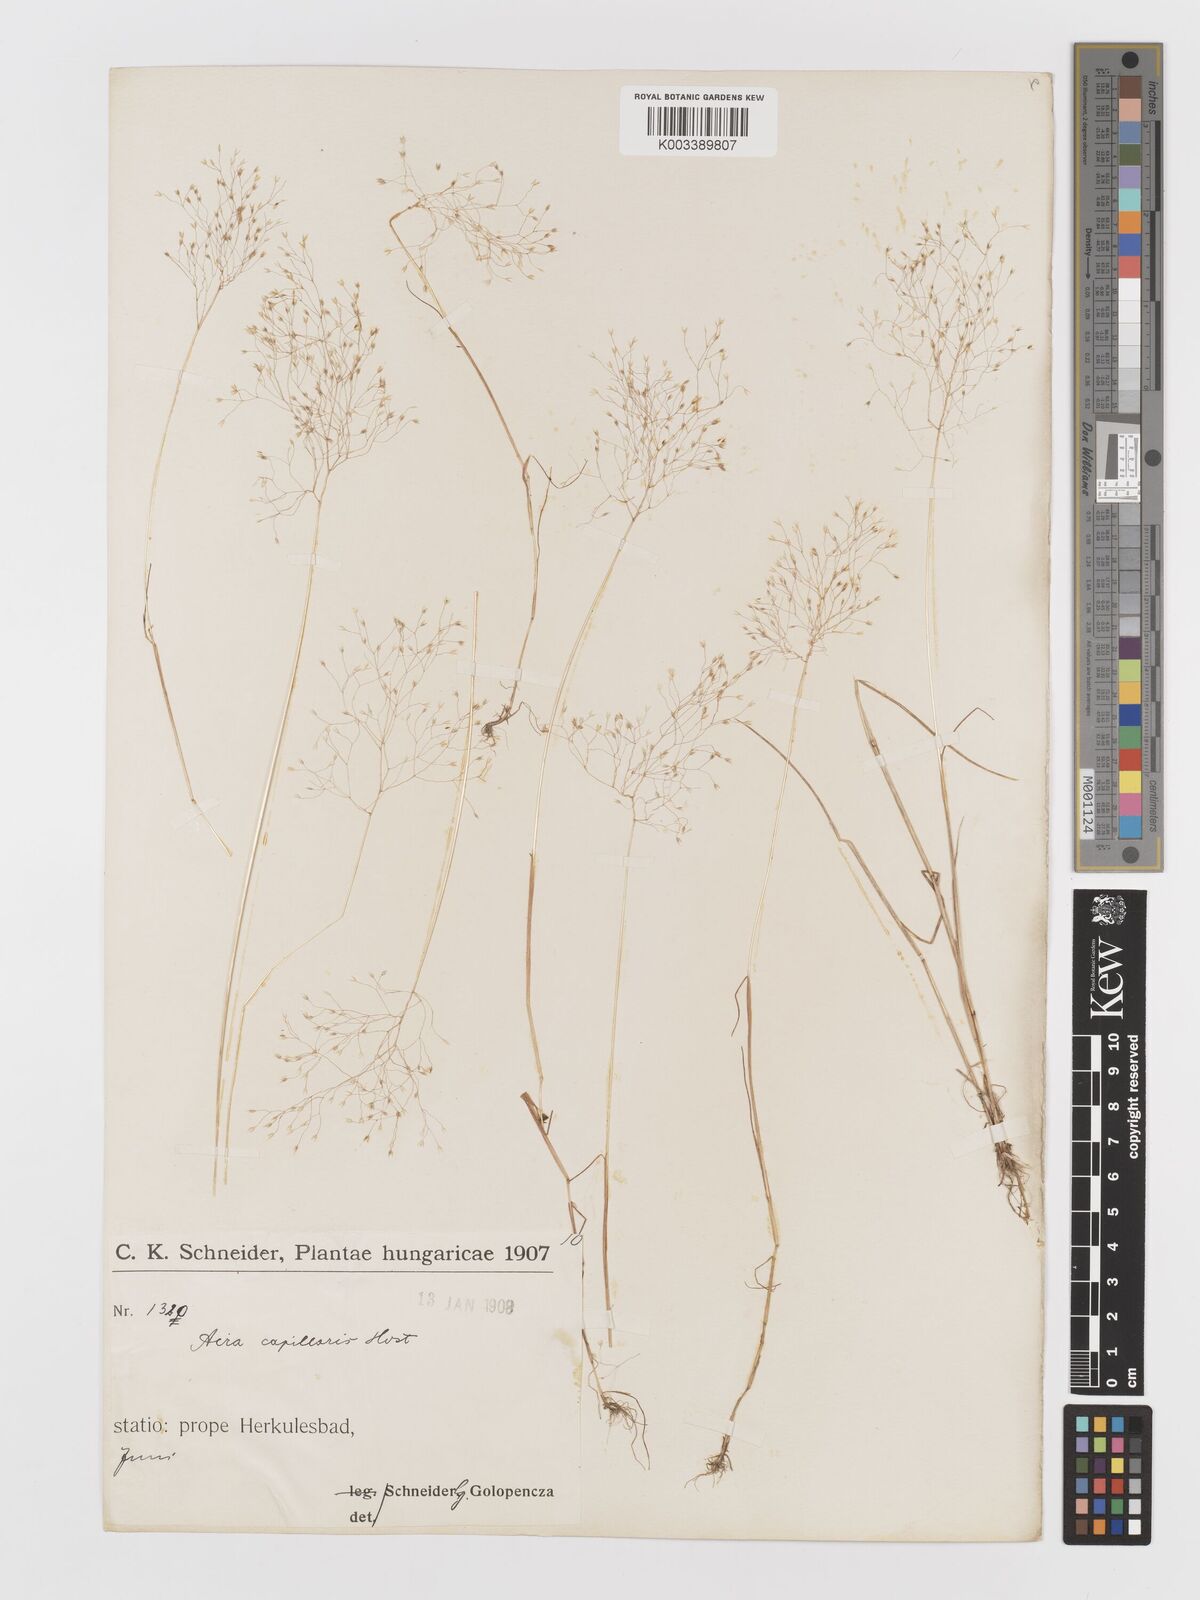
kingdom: Plantae
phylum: Tracheophyta
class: Liliopsida
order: Poales
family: Poaceae
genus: Aira
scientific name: Aira elegans
